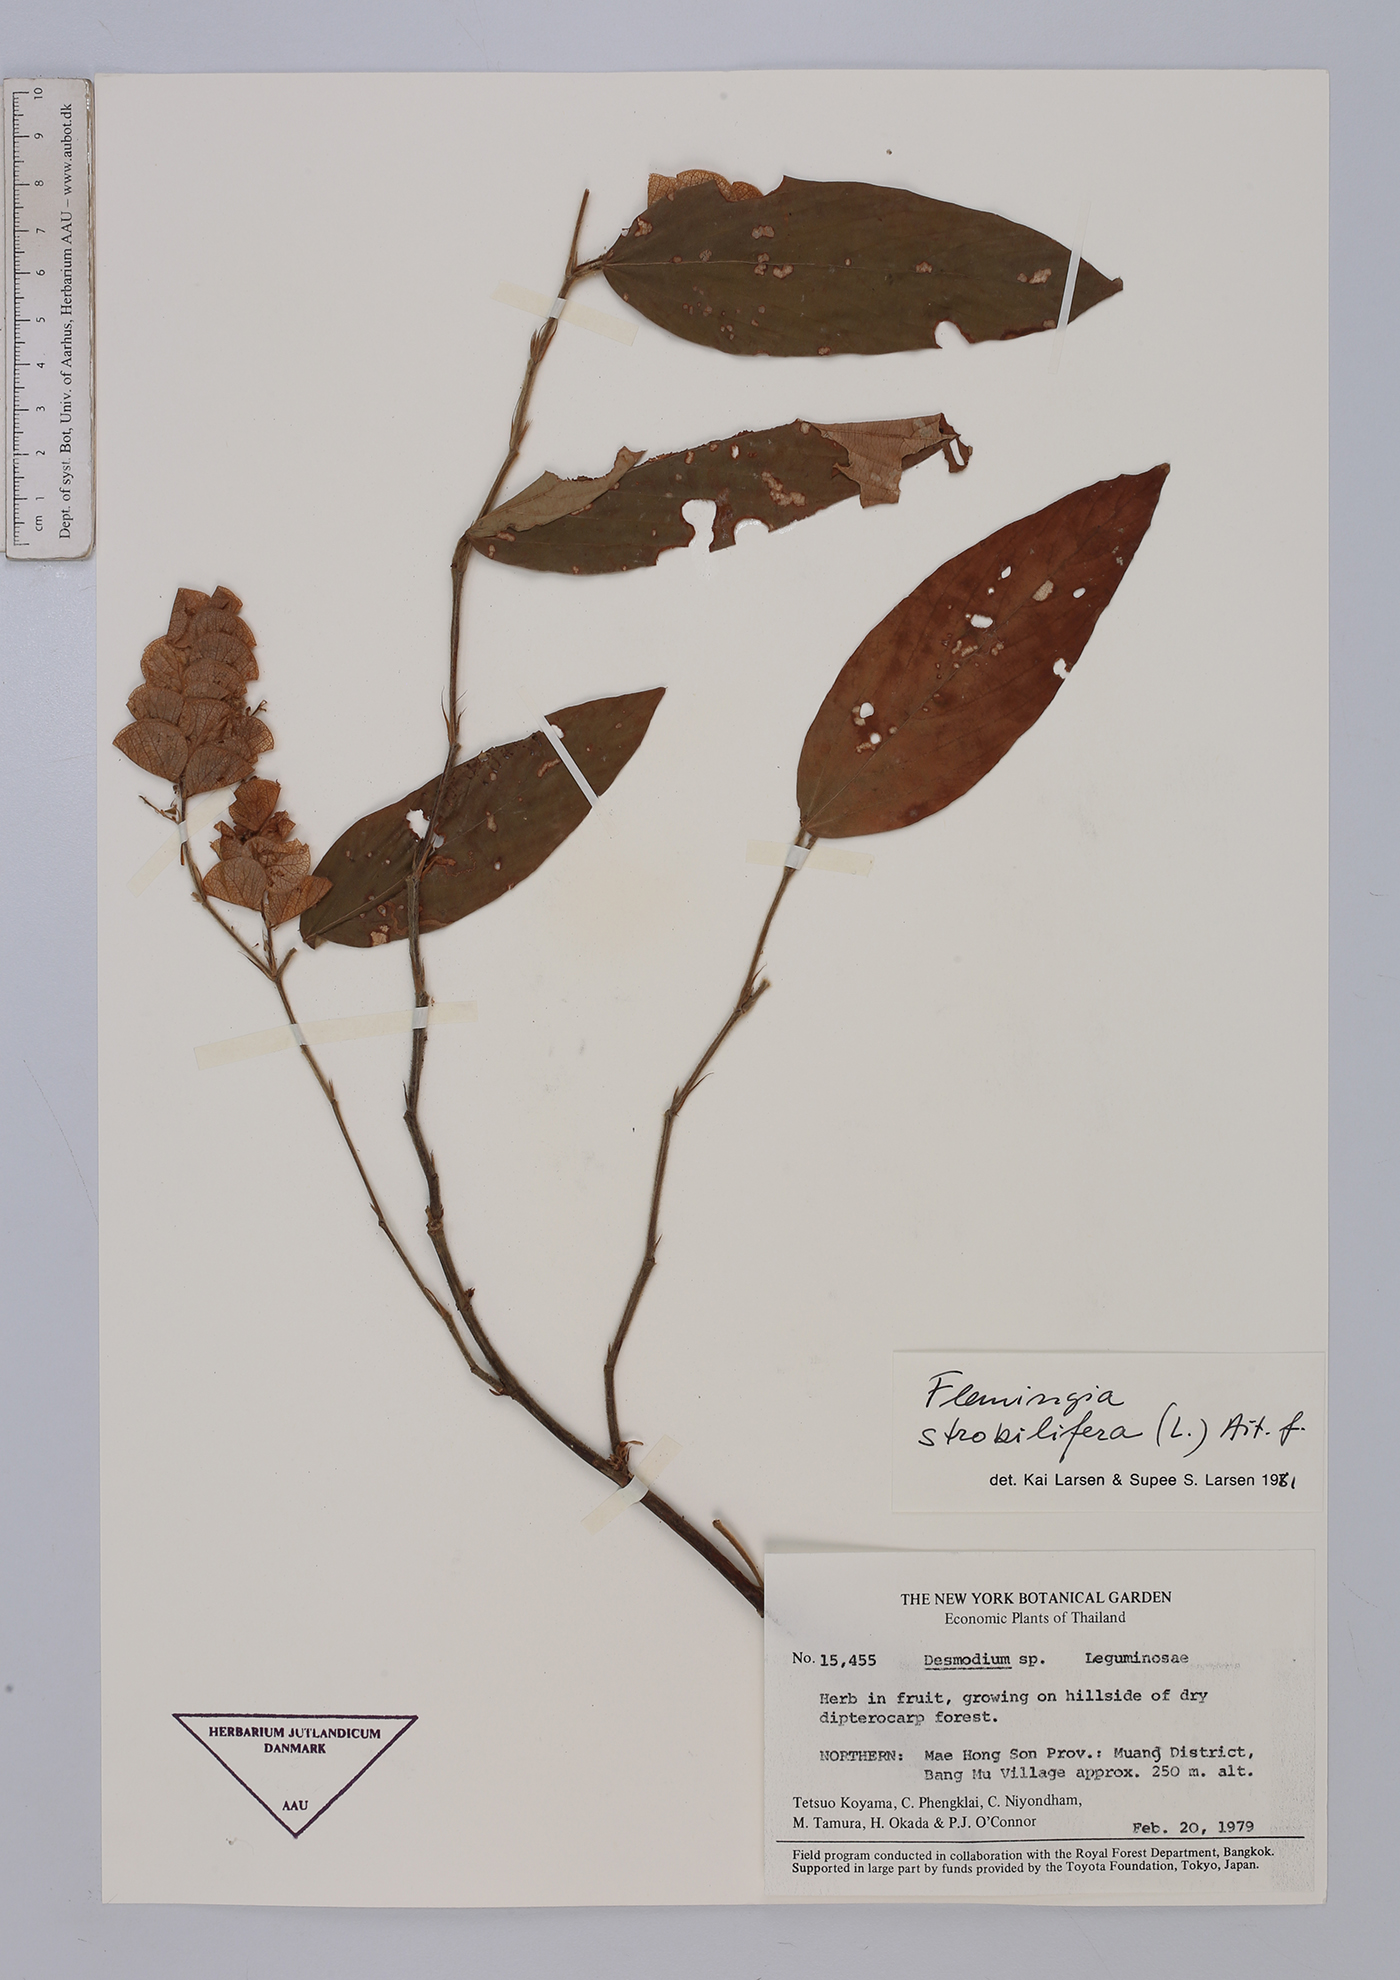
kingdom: Plantae
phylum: Tracheophyta
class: Magnoliopsida
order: Fabales
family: Fabaceae
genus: Flemingia
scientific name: Flemingia strobilifera
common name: Wild hops
